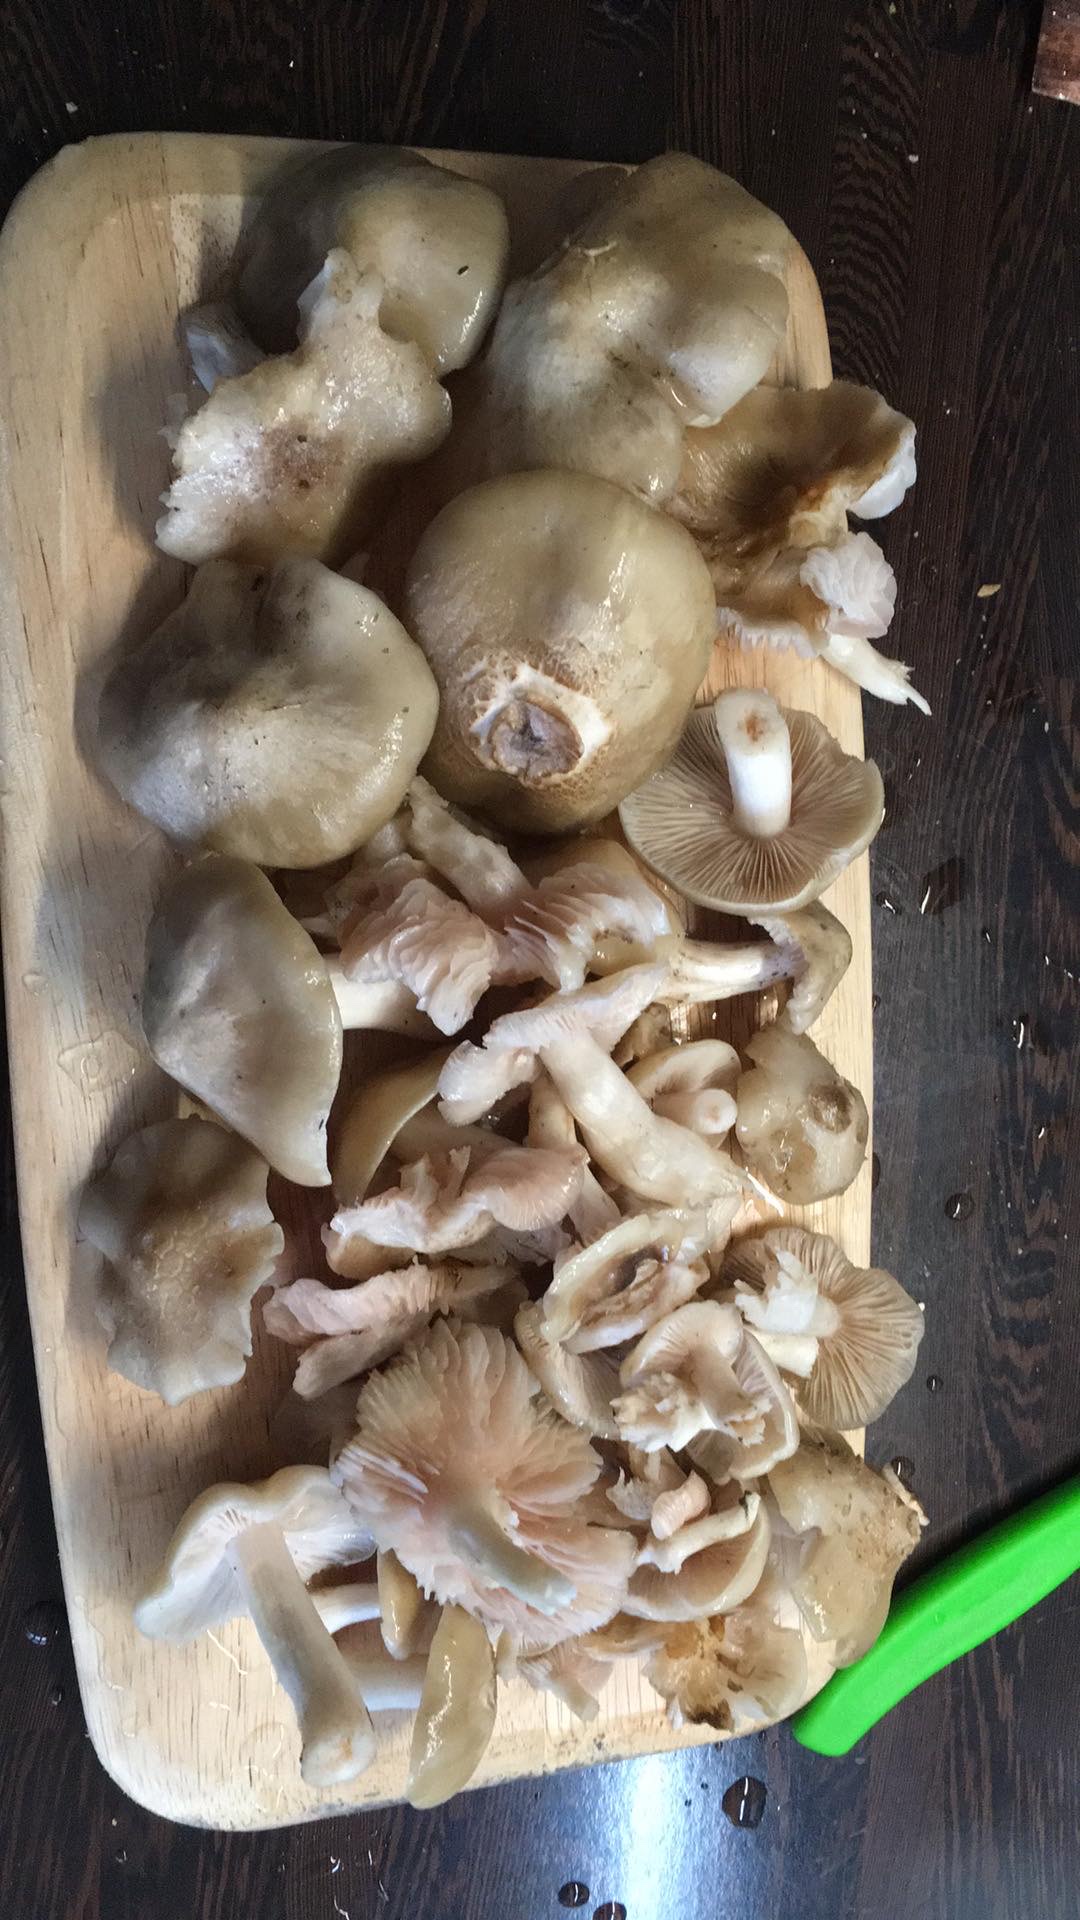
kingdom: Fungi
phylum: Basidiomycota
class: Agaricomycetes
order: Agaricales
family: Entolomataceae
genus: Entoloma
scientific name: Entoloma
